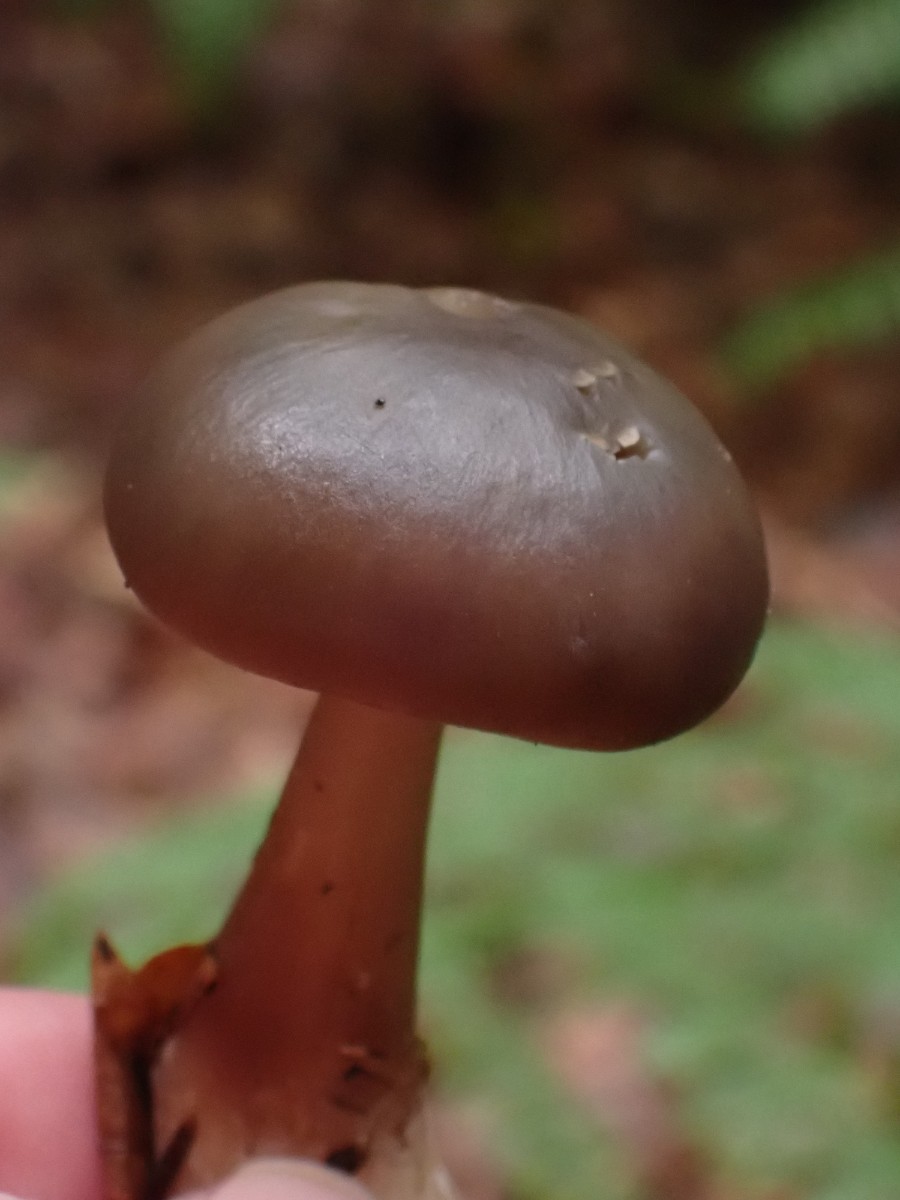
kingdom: Fungi
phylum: Basidiomycota
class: Agaricomycetes
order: Agaricales
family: Omphalotaceae
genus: Rhodocollybia
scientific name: Rhodocollybia asema
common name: horngrå fladhat
